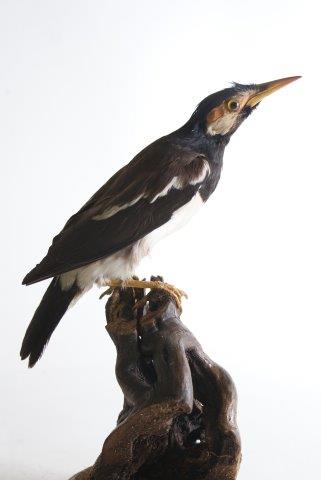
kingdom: Animalia
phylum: Chordata
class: Aves
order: Passeriformes
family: Sturnidae
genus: Gracupica
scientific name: Gracupica contra
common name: Pied myna
